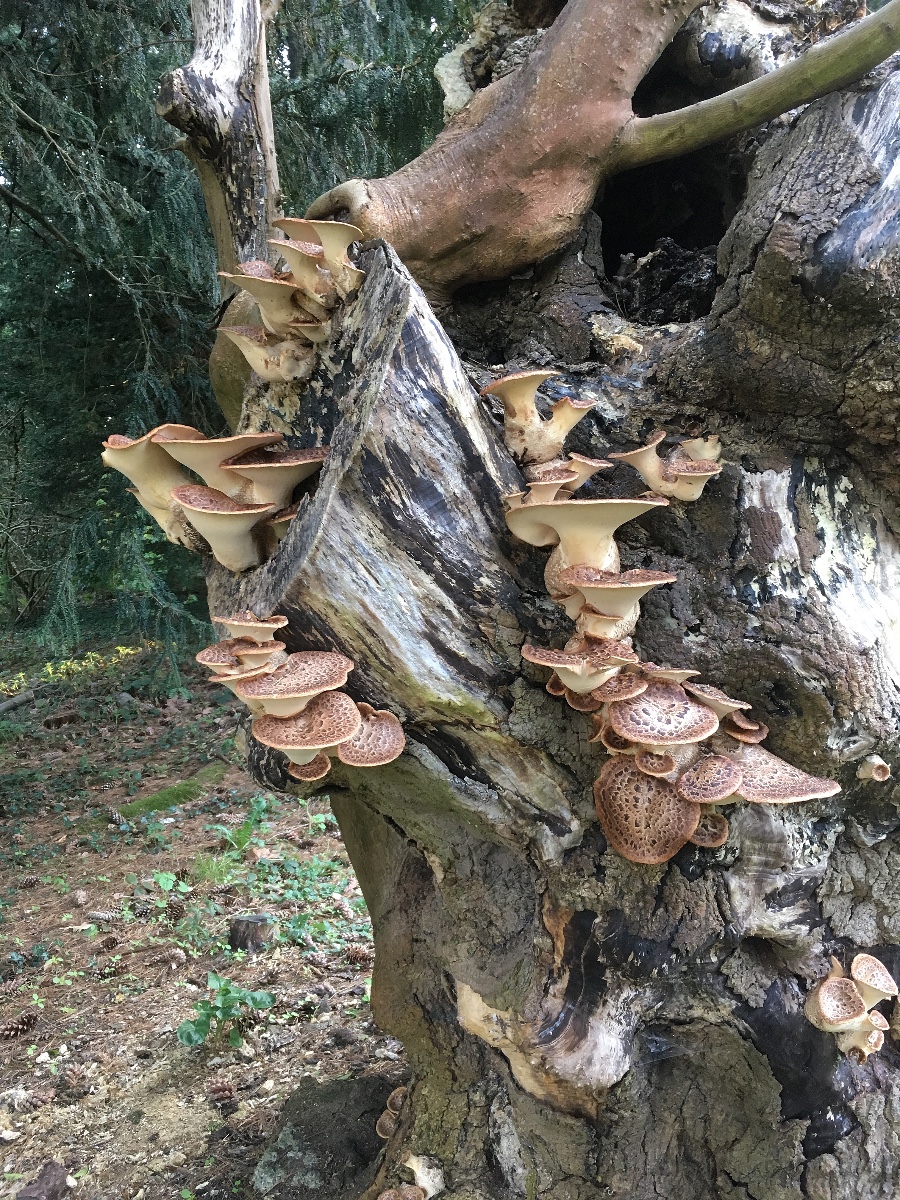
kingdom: Fungi
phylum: Basidiomycota
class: Agaricomycetes
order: Polyporales
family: Polyporaceae
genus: Cerioporus
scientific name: Cerioporus squamosus
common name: skællet stilkporesvamp
